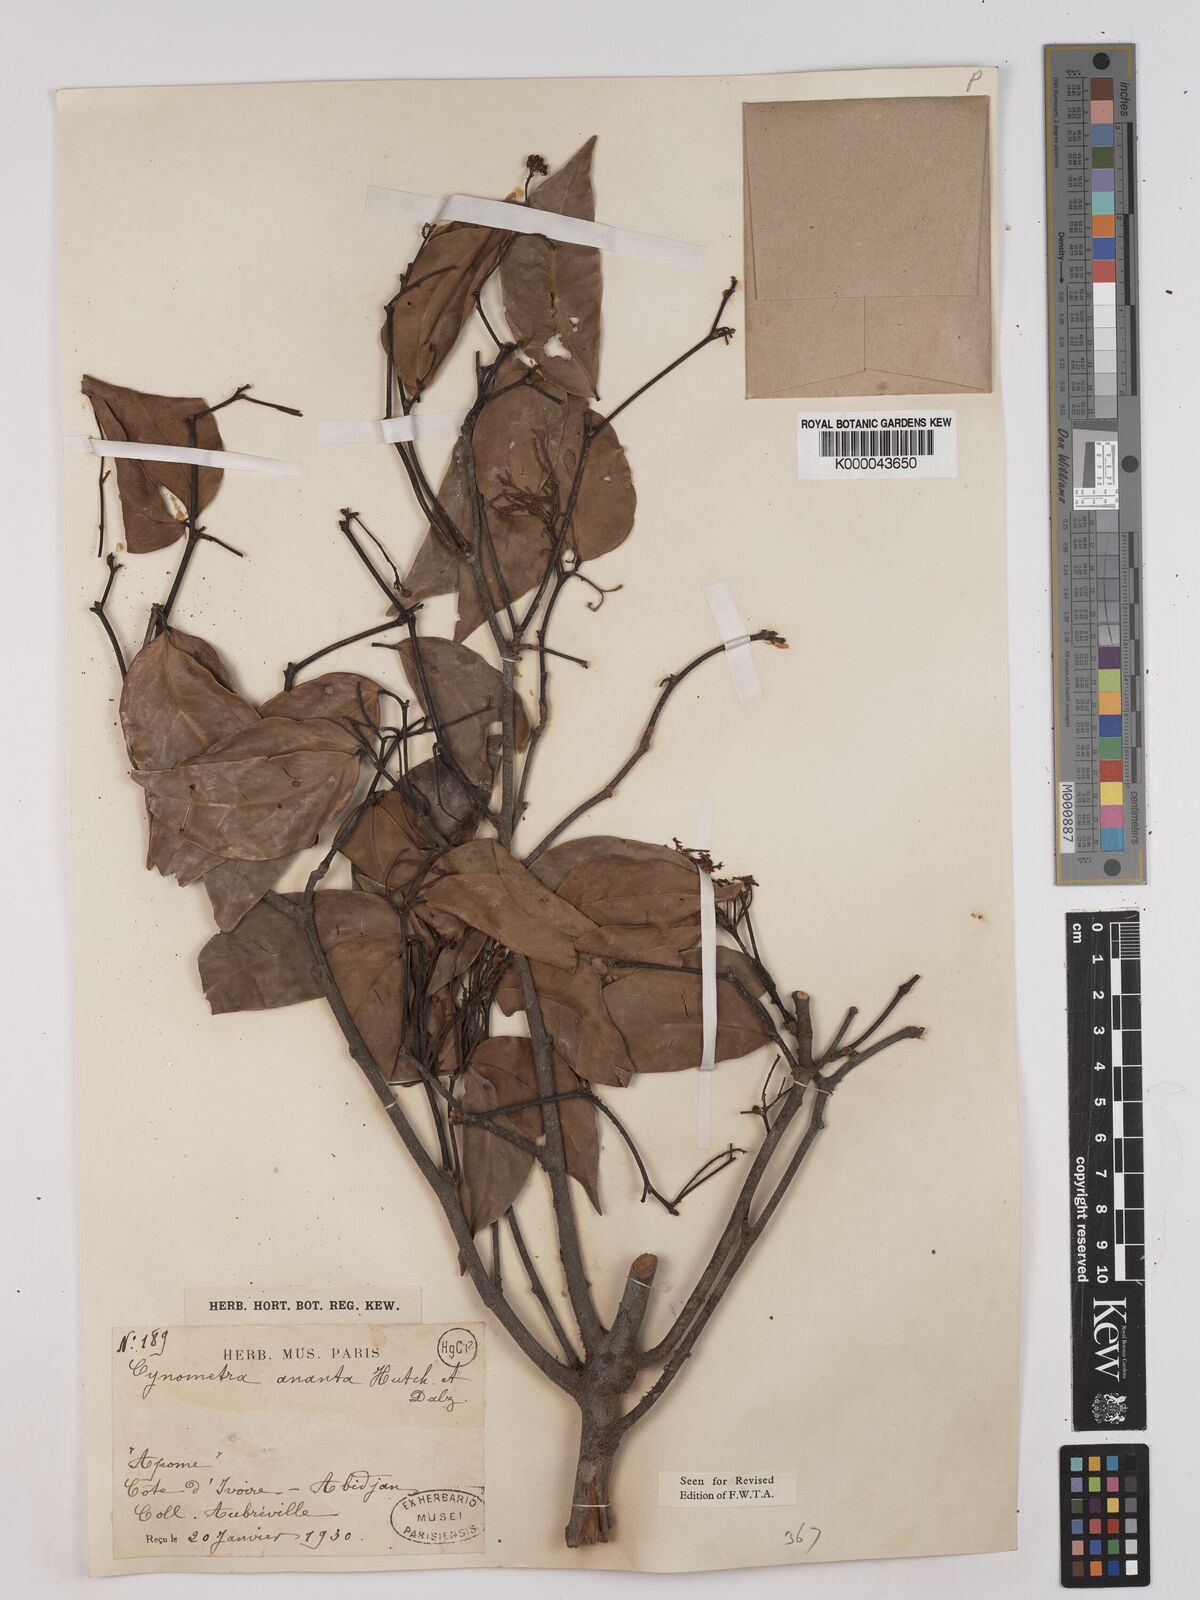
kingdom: Plantae
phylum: Tracheophyta
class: Magnoliopsida
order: Fabales
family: Fabaceae
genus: Cynometra
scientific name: Cynometra ananta
